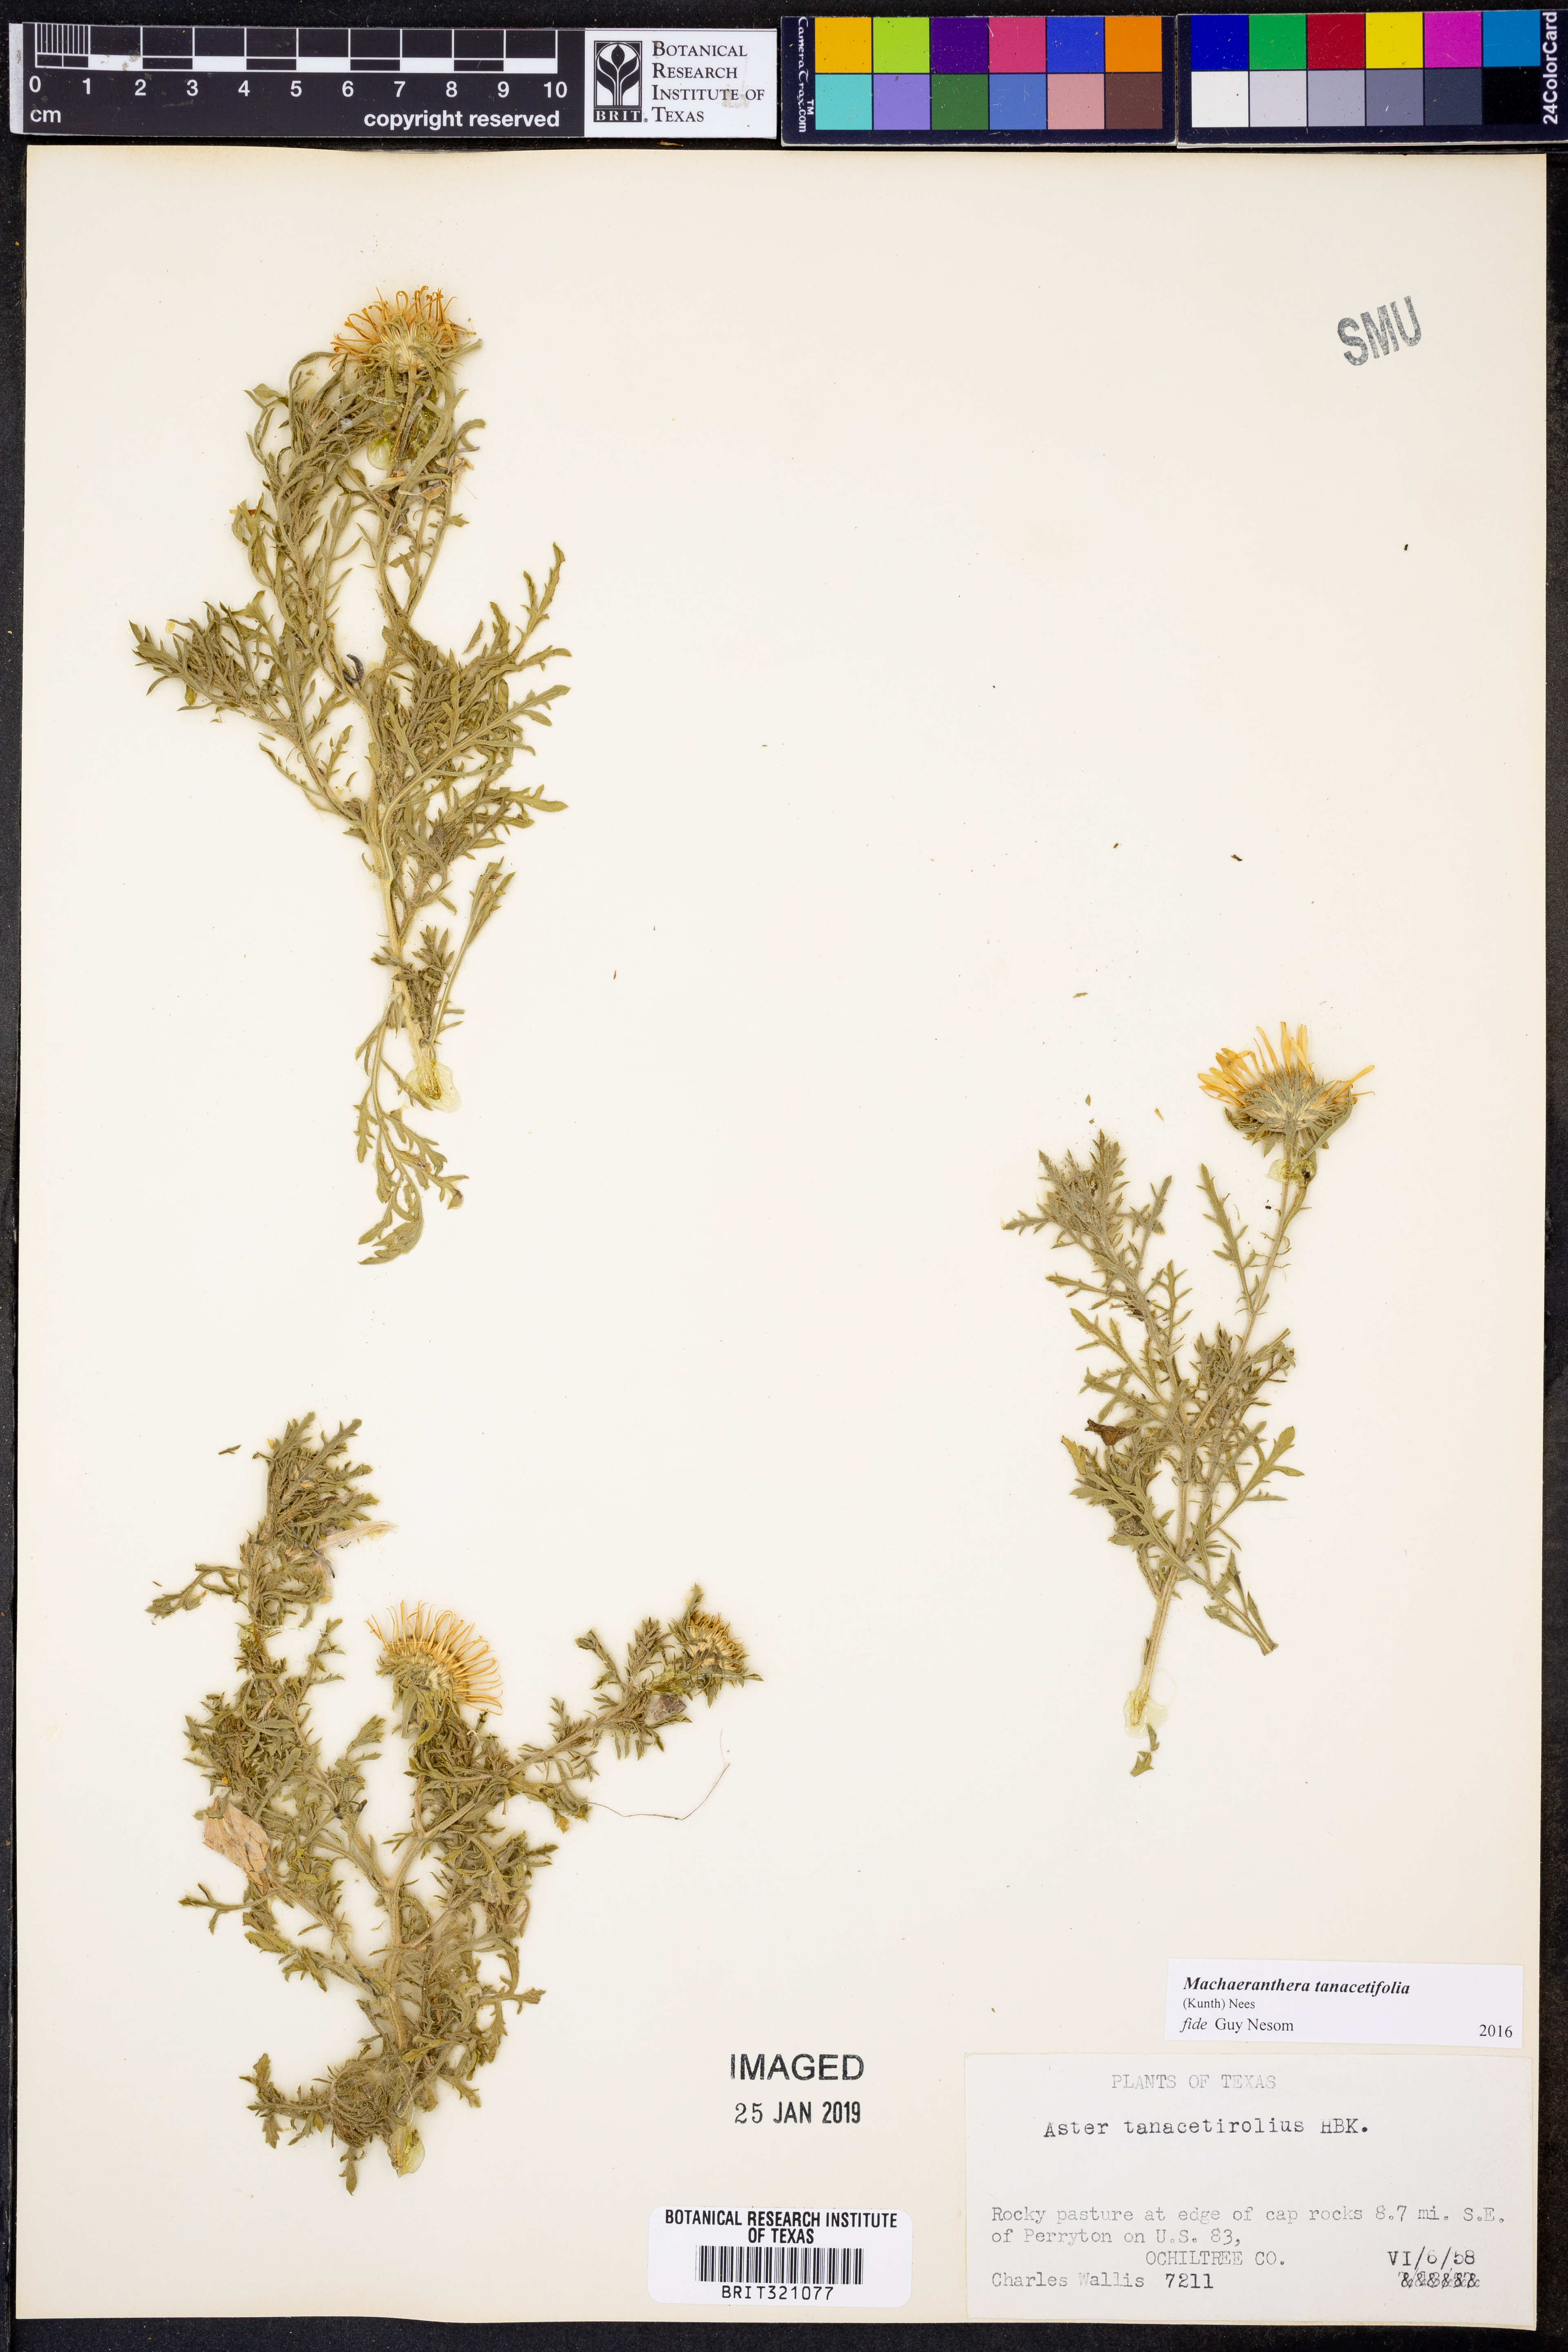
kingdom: Plantae
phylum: Tracheophyta
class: Magnoliopsida
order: Asterales
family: Asteraceae
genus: Machaeranthera
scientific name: Machaeranthera tanacetifolia
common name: Tansy-aster
